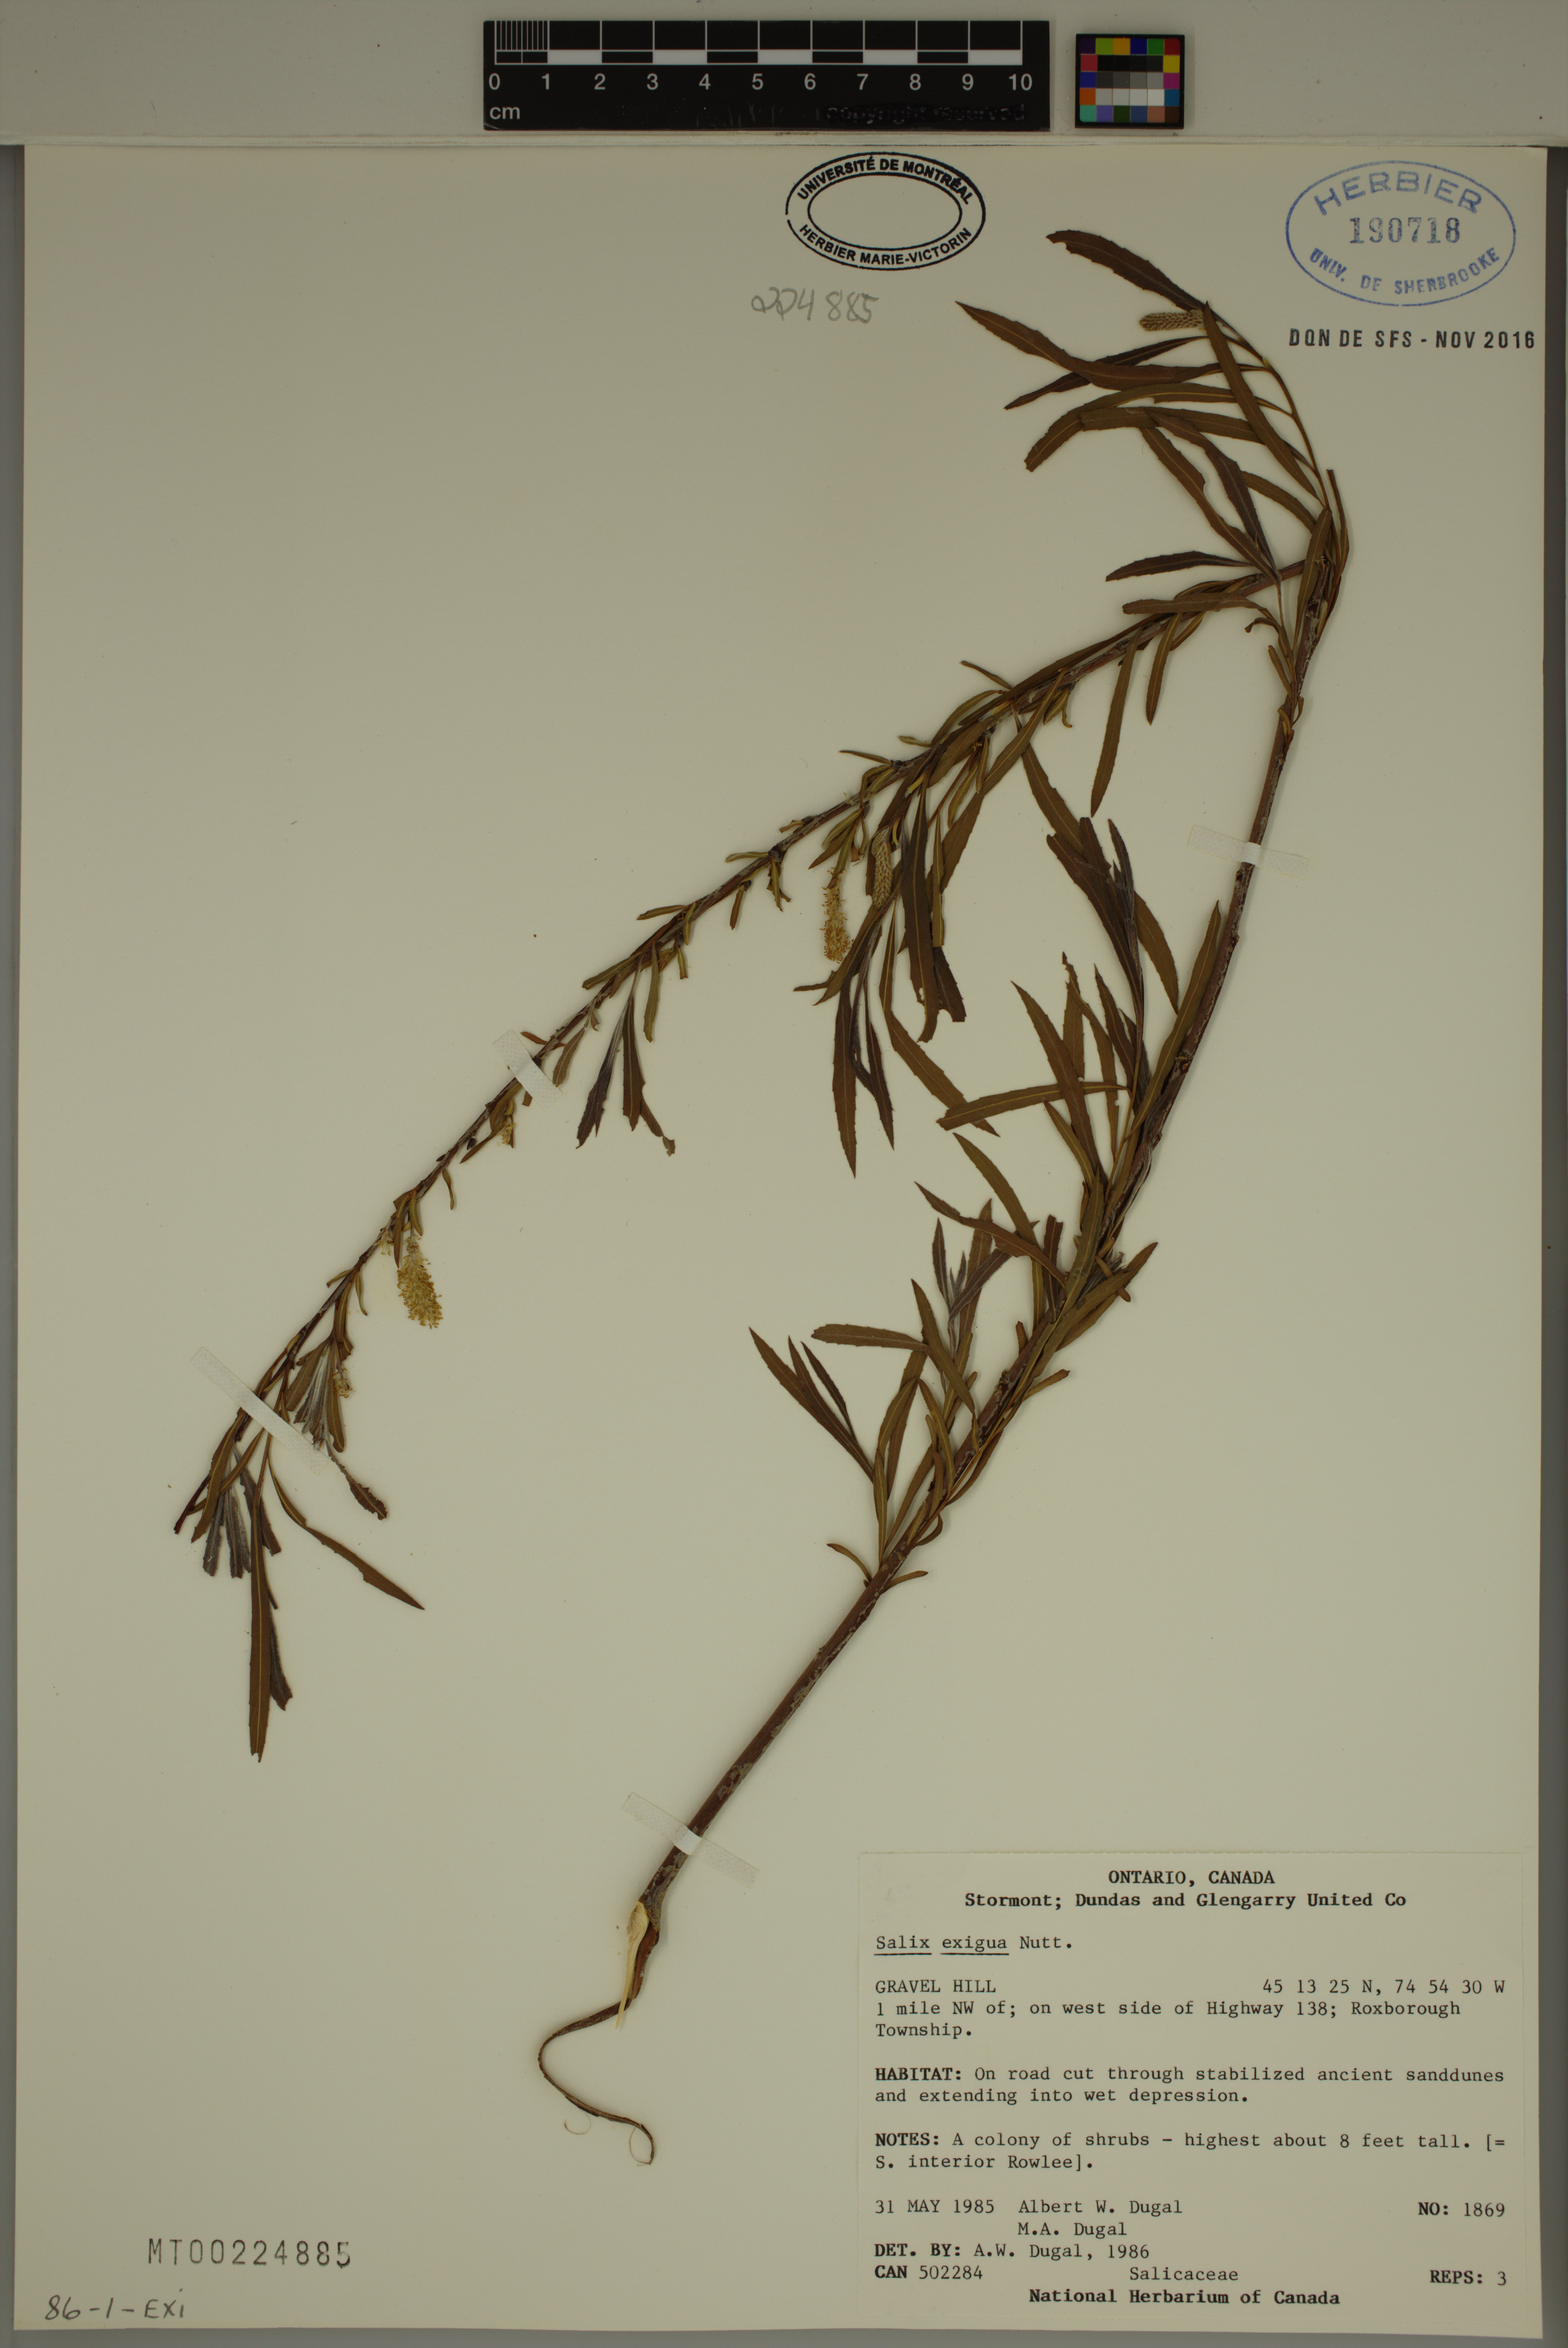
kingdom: Plantae
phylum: Tracheophyta
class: Magnoliopsida
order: Malpighiales
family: Salicaceae
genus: Salix
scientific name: Salix exigua
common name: Coyote willow
